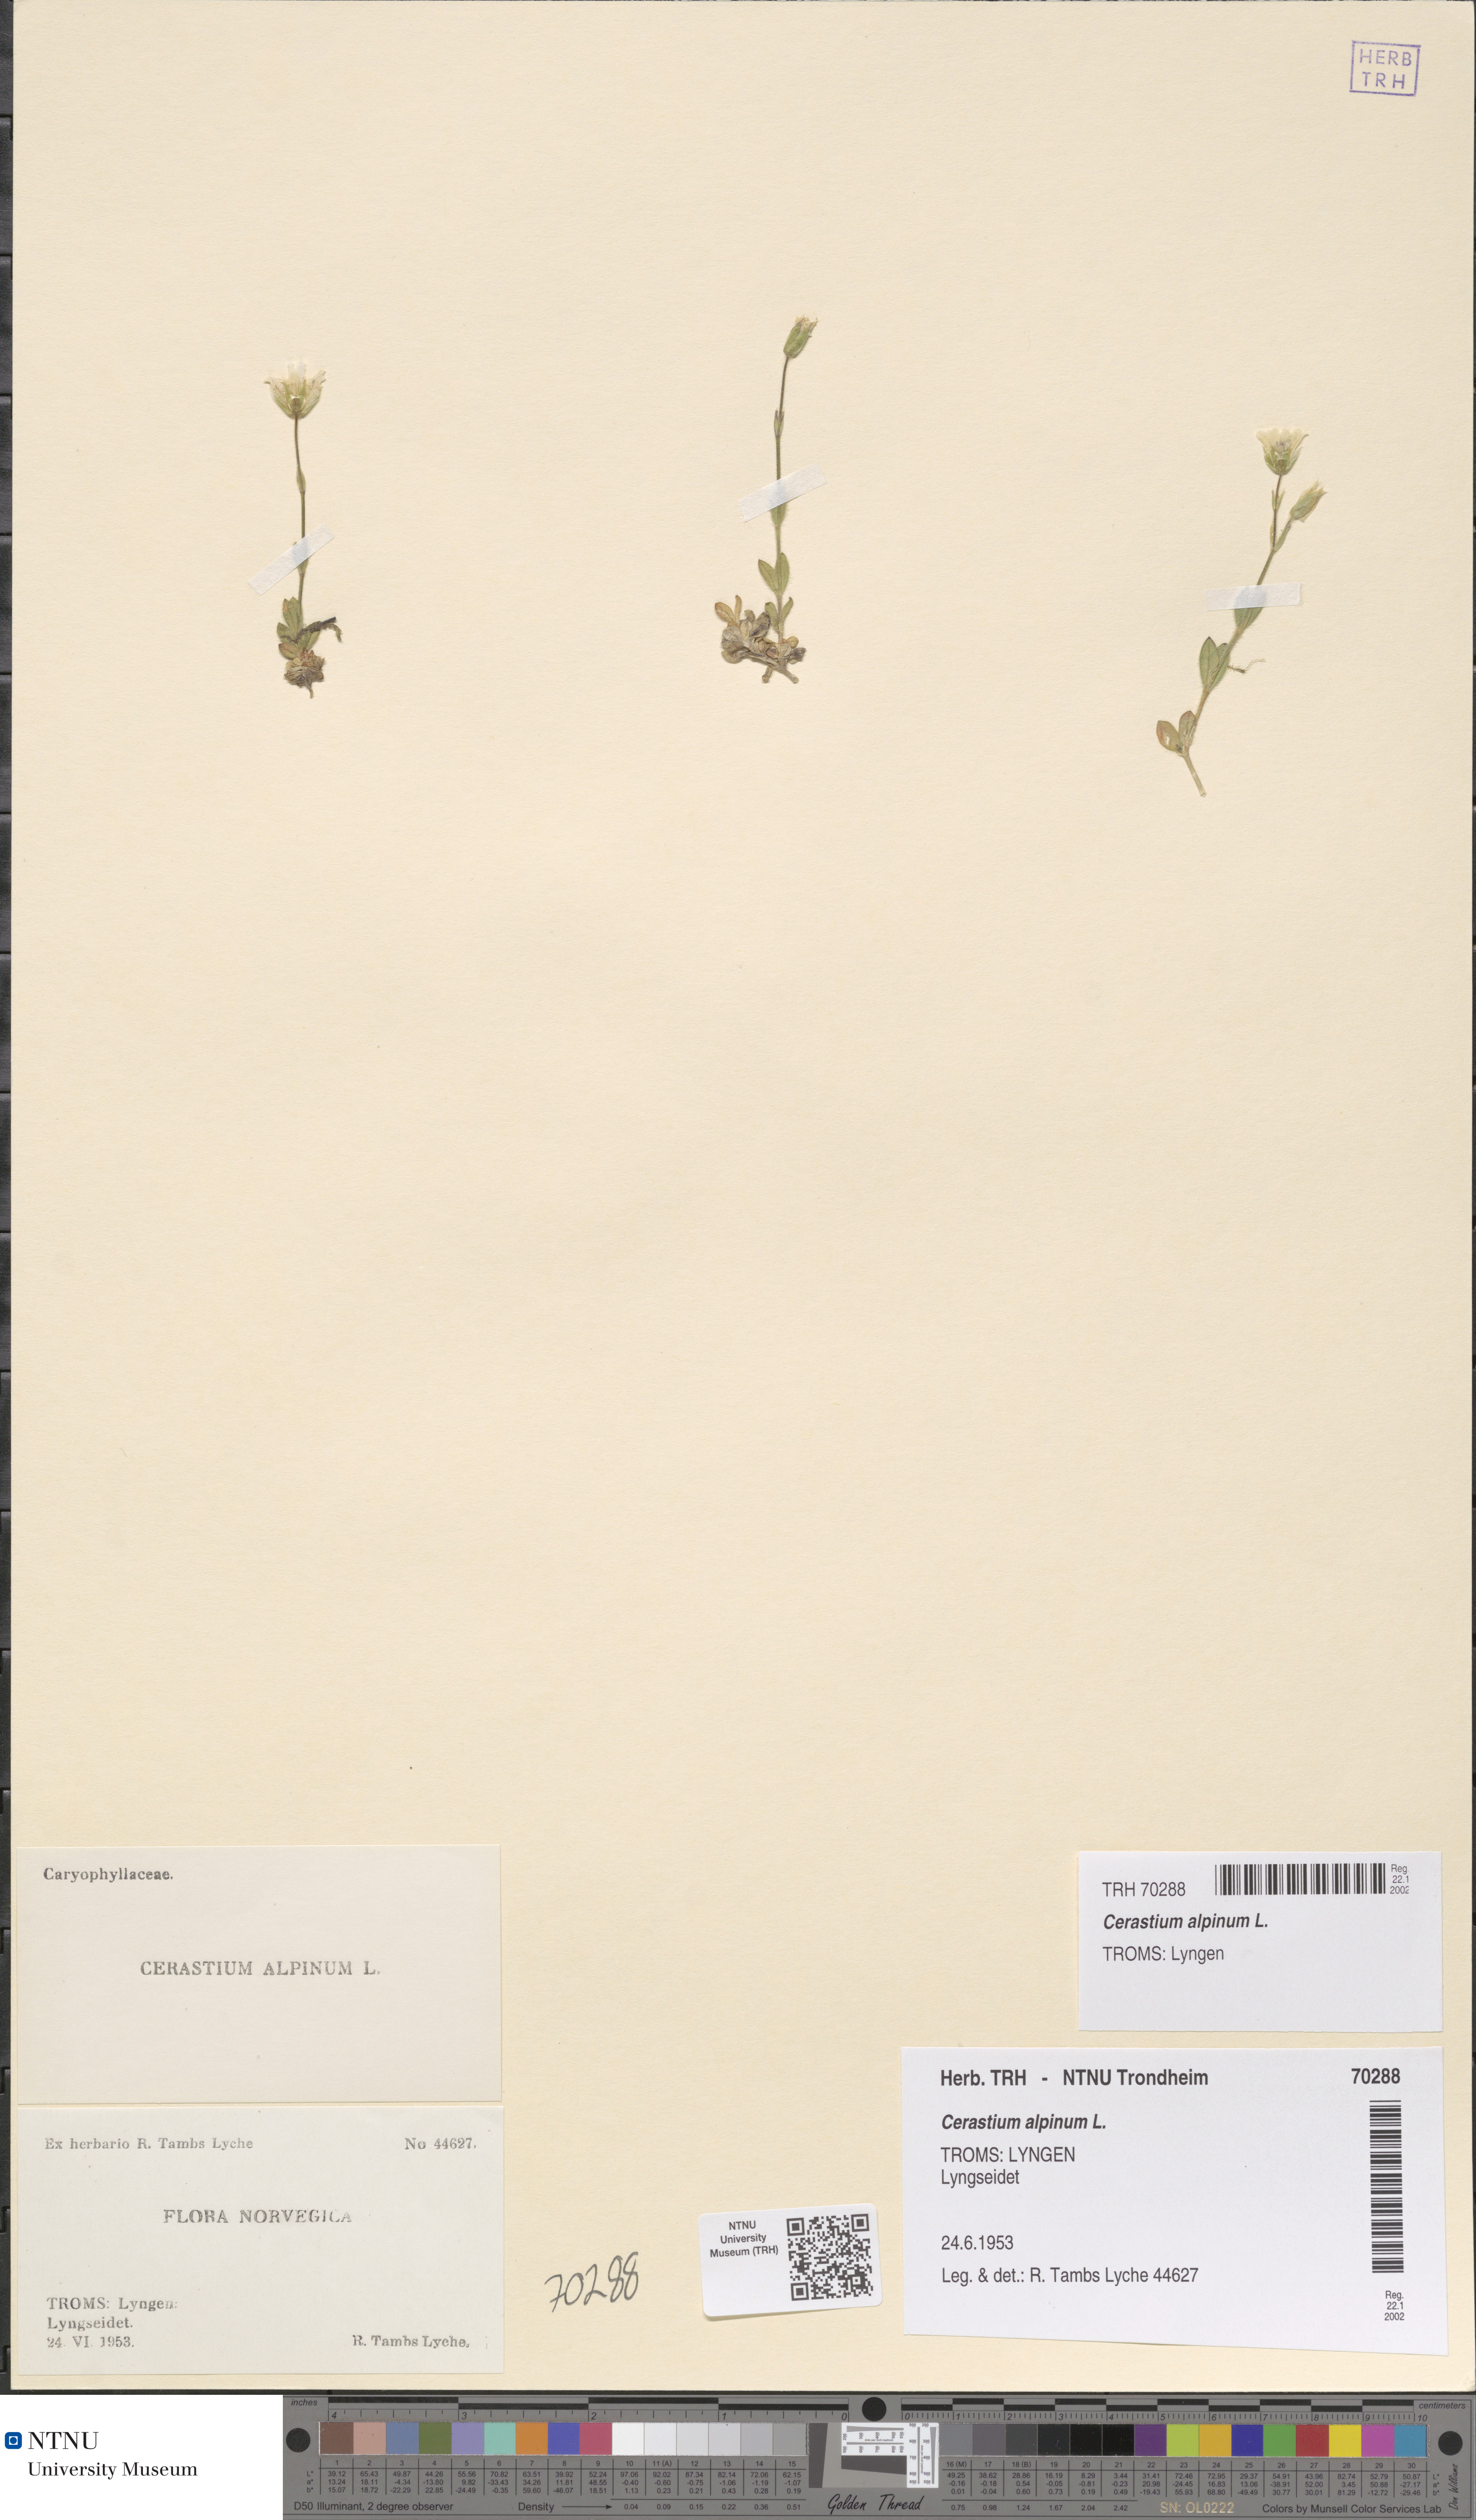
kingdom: Plantae
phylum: Tracheophyta
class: Magnoliopsida
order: Caryophyllales
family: Caryophyllaceae
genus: Cerastium
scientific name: Cerastium alpinum
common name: Alpine mouse-ear
